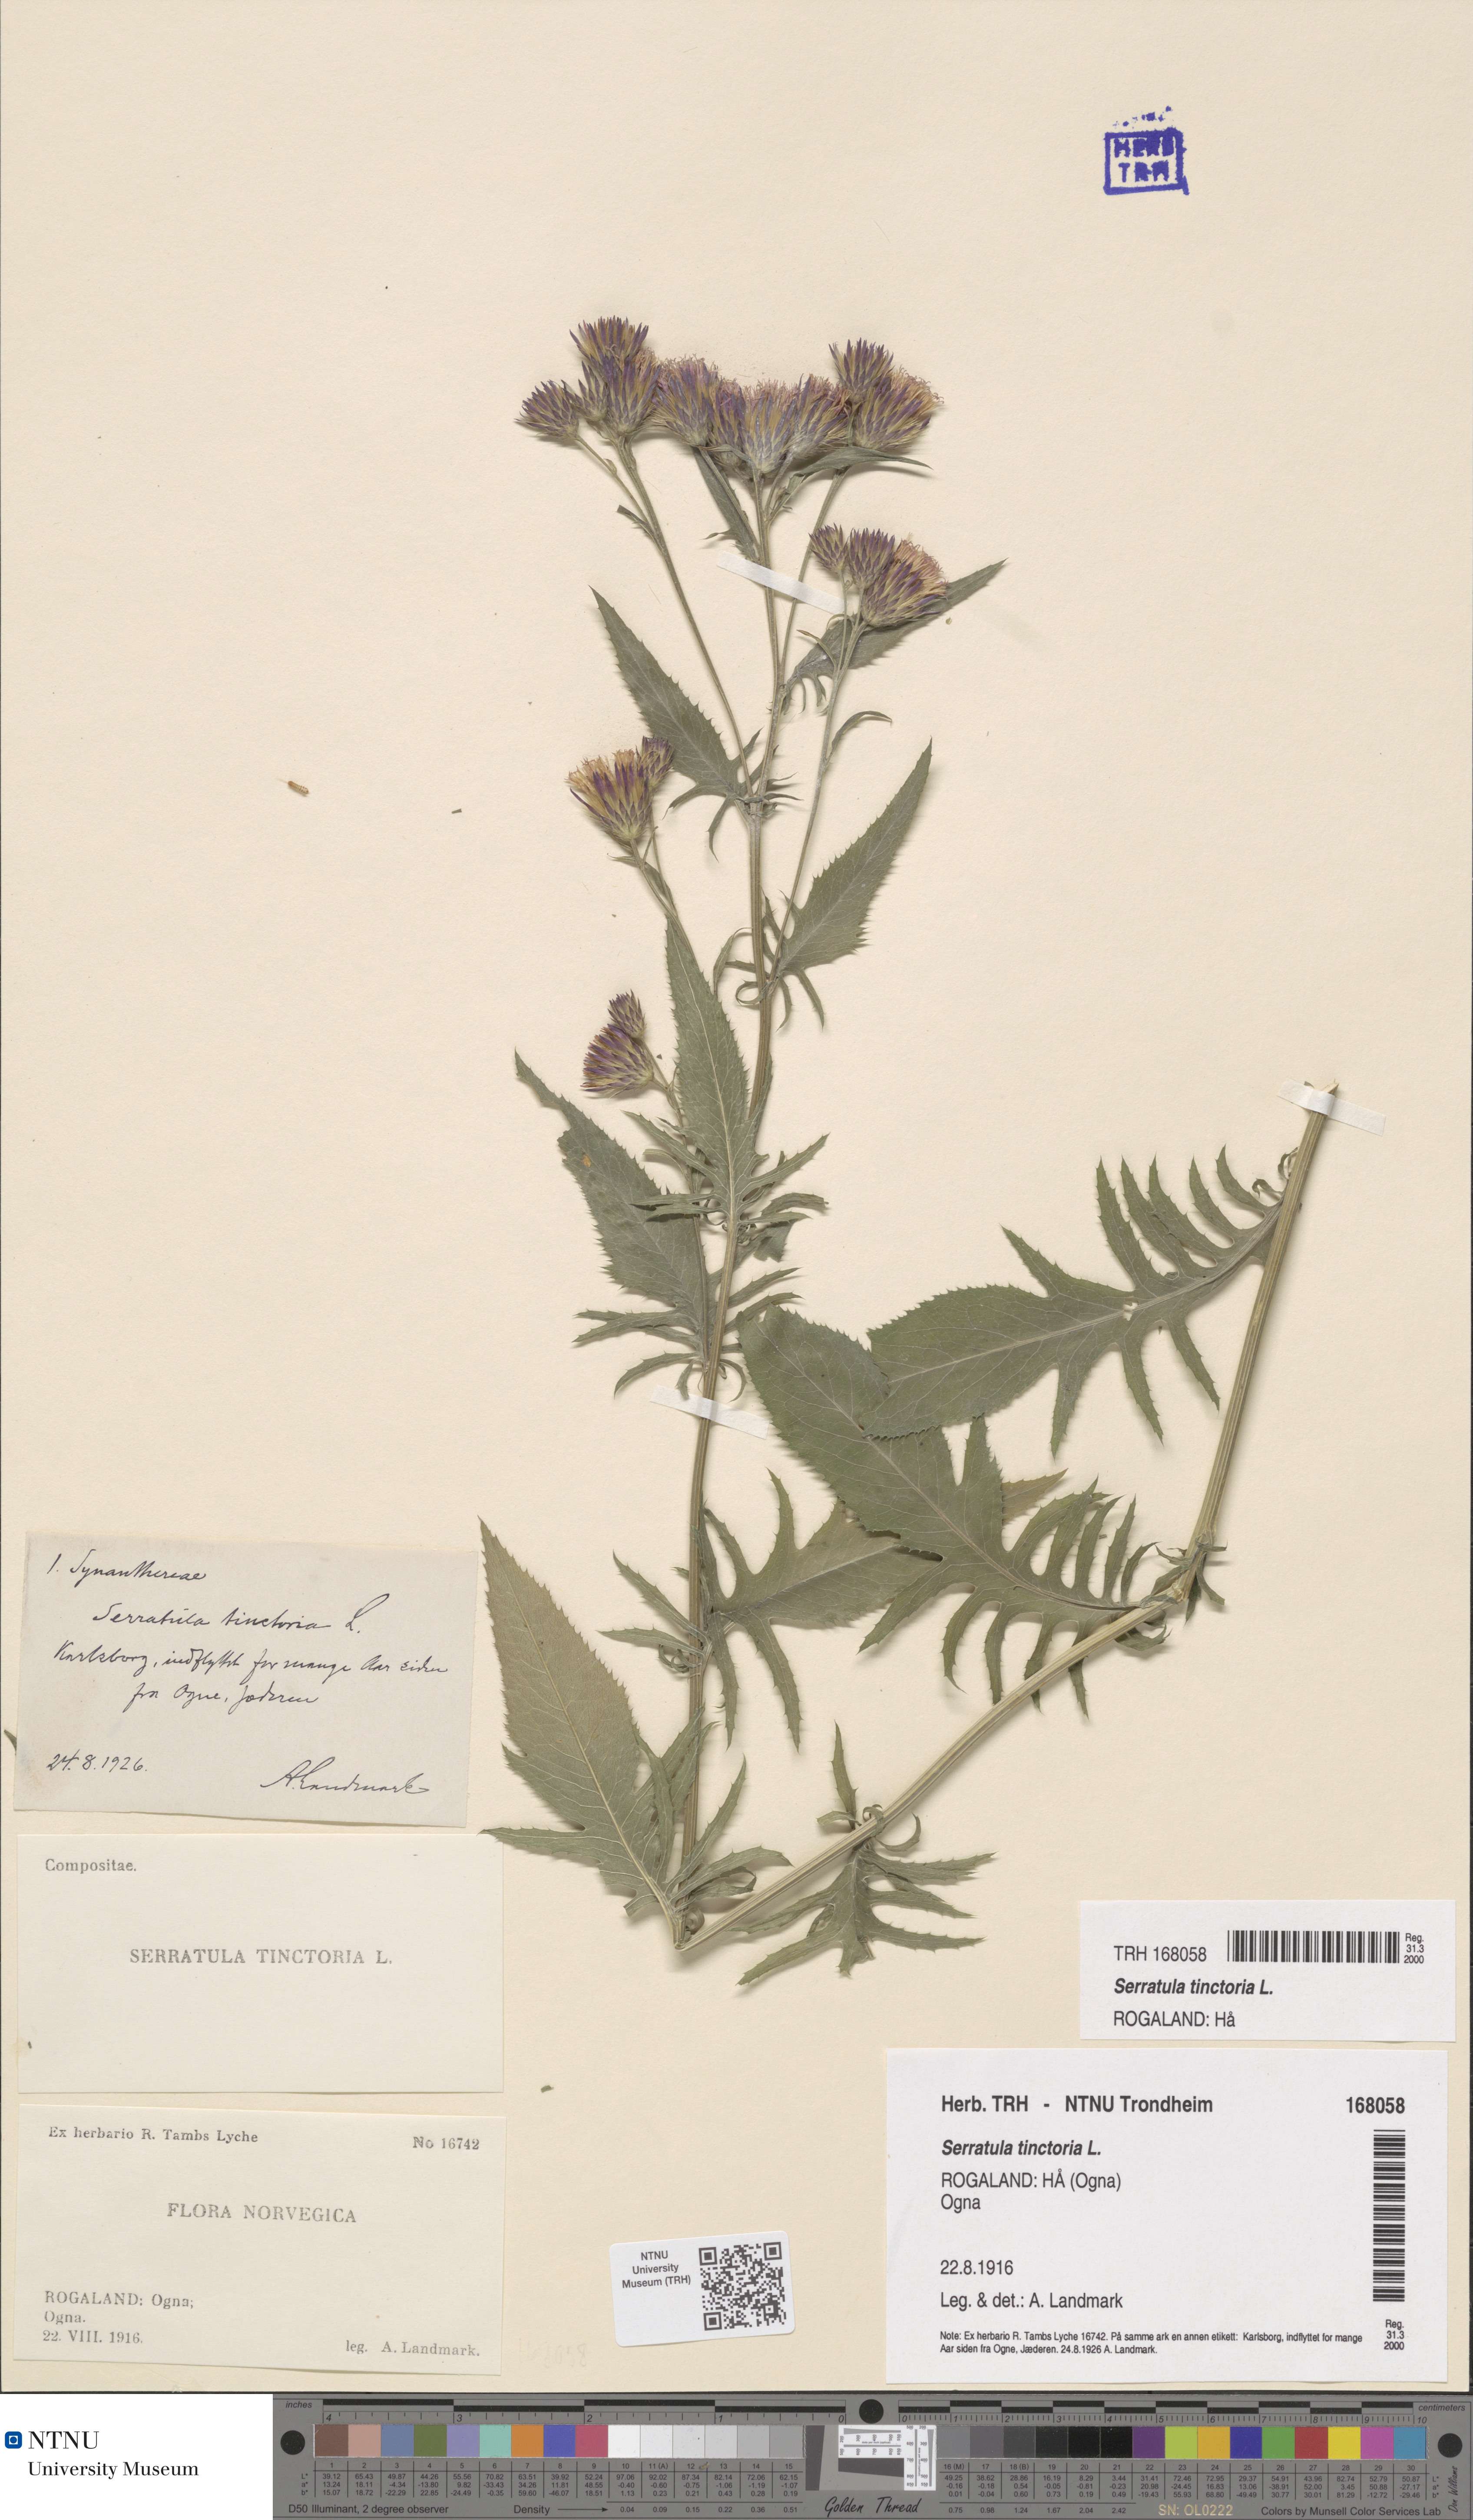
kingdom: Plantae
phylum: Tracheophyta
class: Magnoliopsida
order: Asterales
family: Asteraceae
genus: Serratula
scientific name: Serratula tinctoria
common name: Saw-wort
